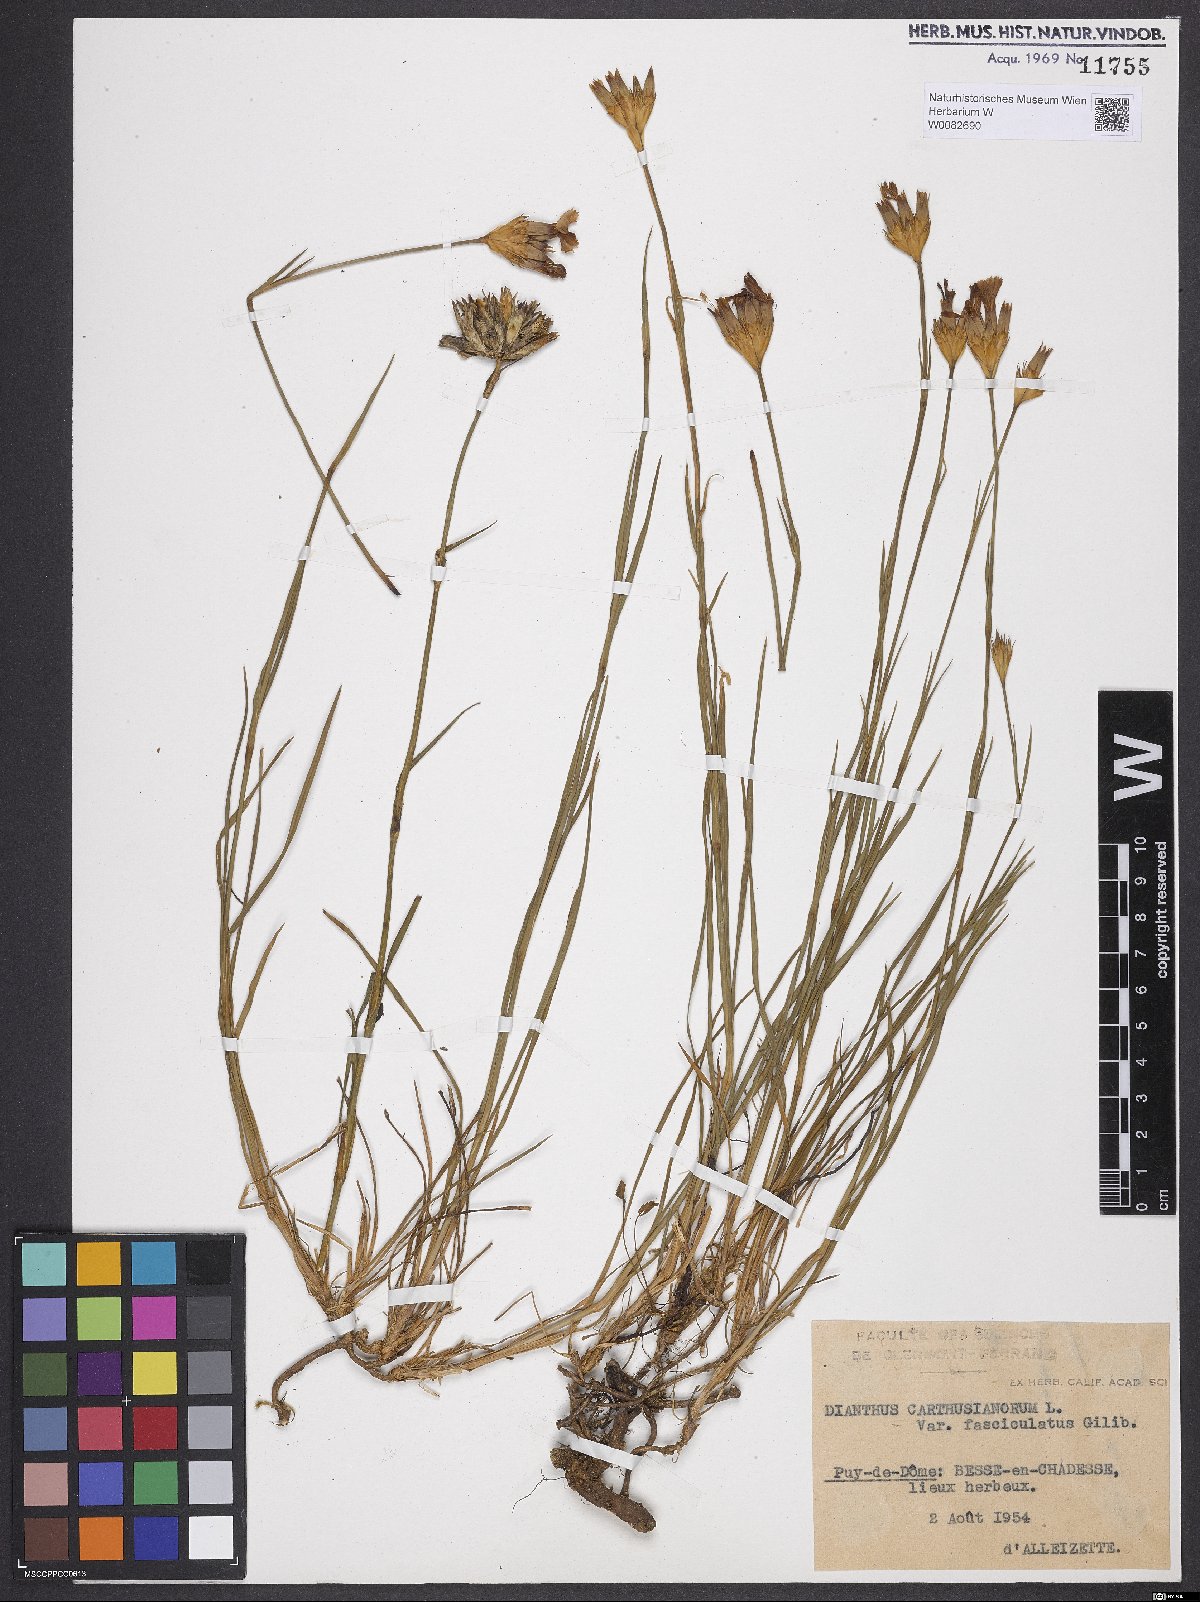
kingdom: Plantae
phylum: Tracheophyta
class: Magnoliopsida
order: Caryophyllales
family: Caryophyllaceae
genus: Dianthus
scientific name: Dianthus carthusianorum
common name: Carthusian pink
